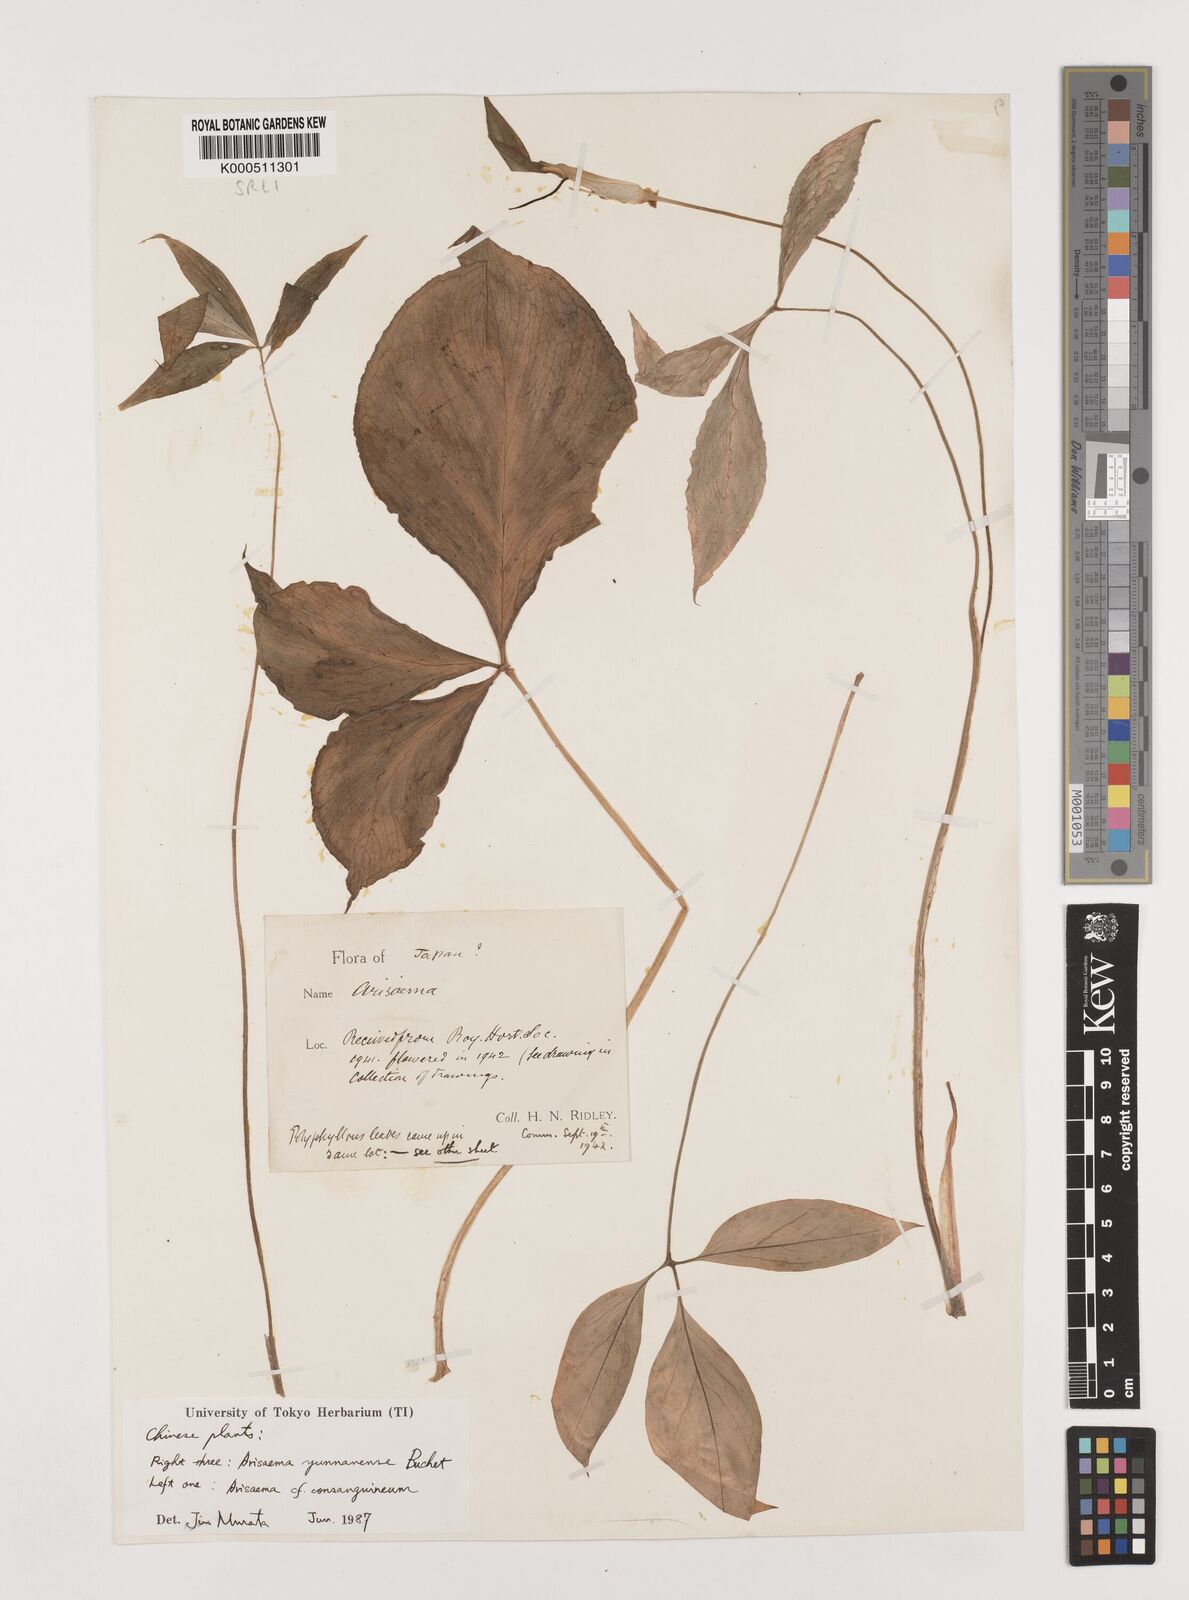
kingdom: Plantae
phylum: Tracheophyta
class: Liliopsida
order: Alismatales
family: Araceae
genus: Arisaema
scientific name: Arisaema yunnanense
